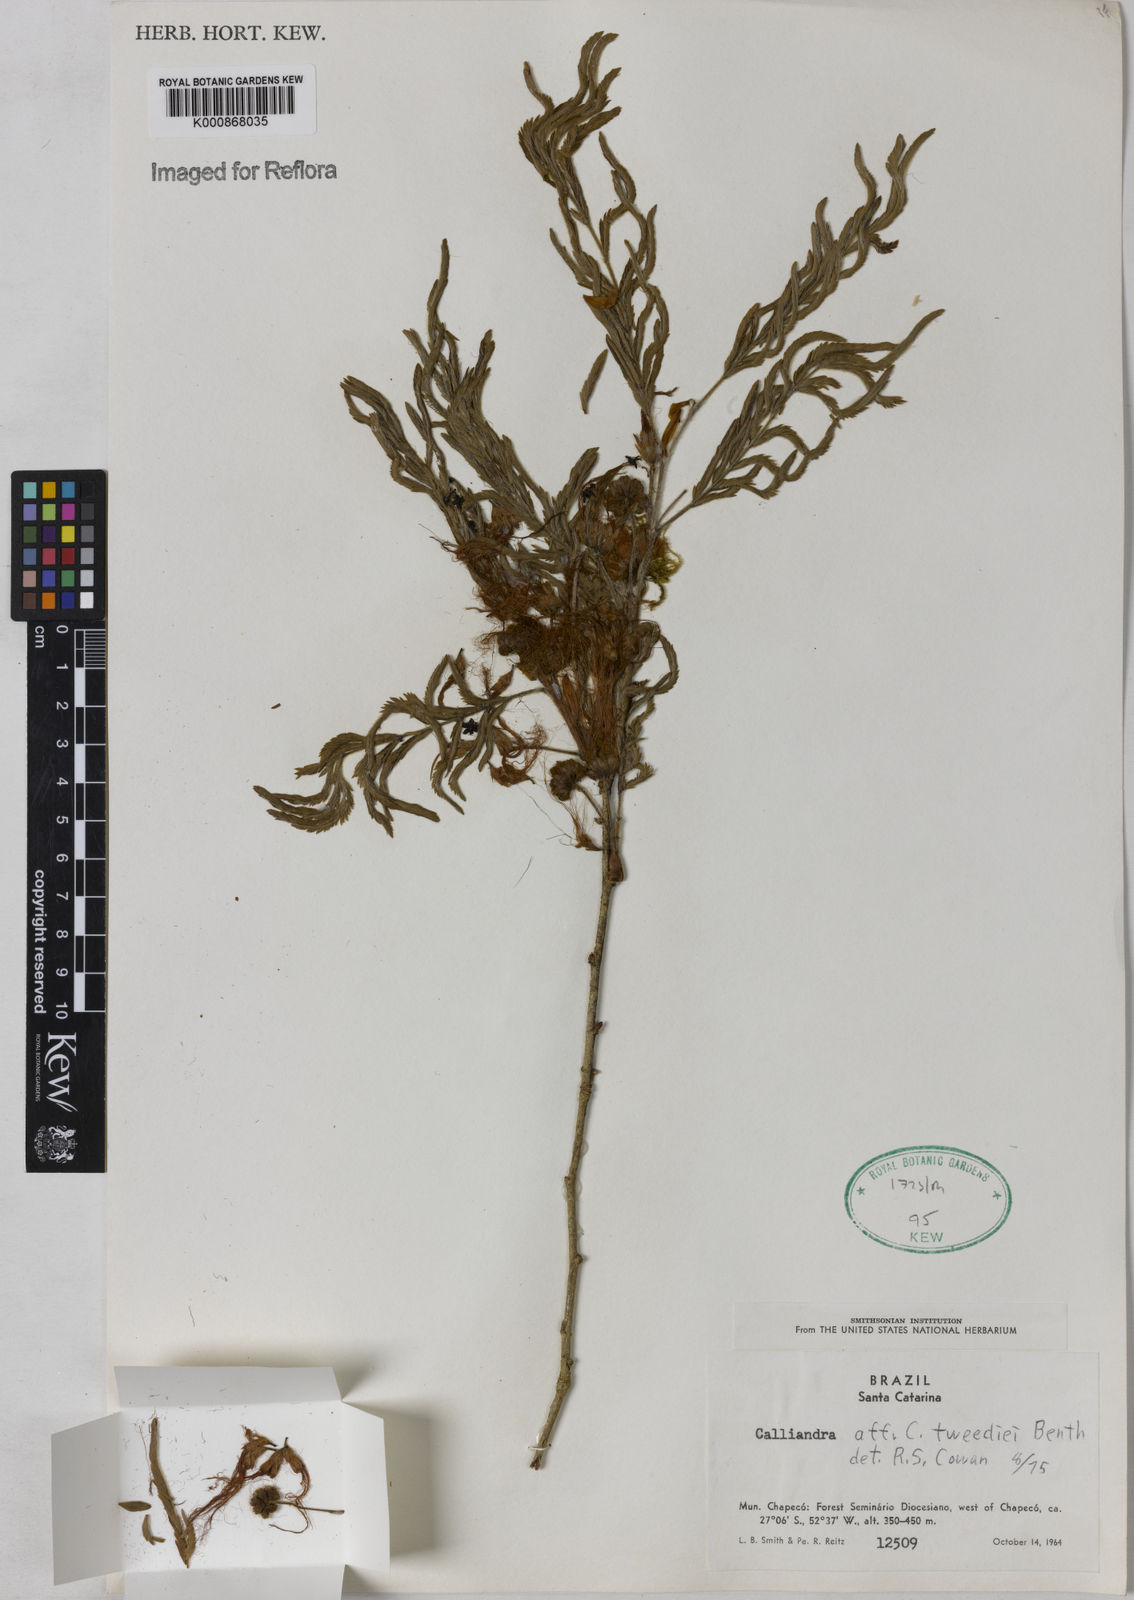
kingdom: Plantae
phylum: Tracheophyta
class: Magnoliopsida
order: Fabales
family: Fabaceae
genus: Calliandra
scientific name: Calliandra tweediei
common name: Mexican flamebush
